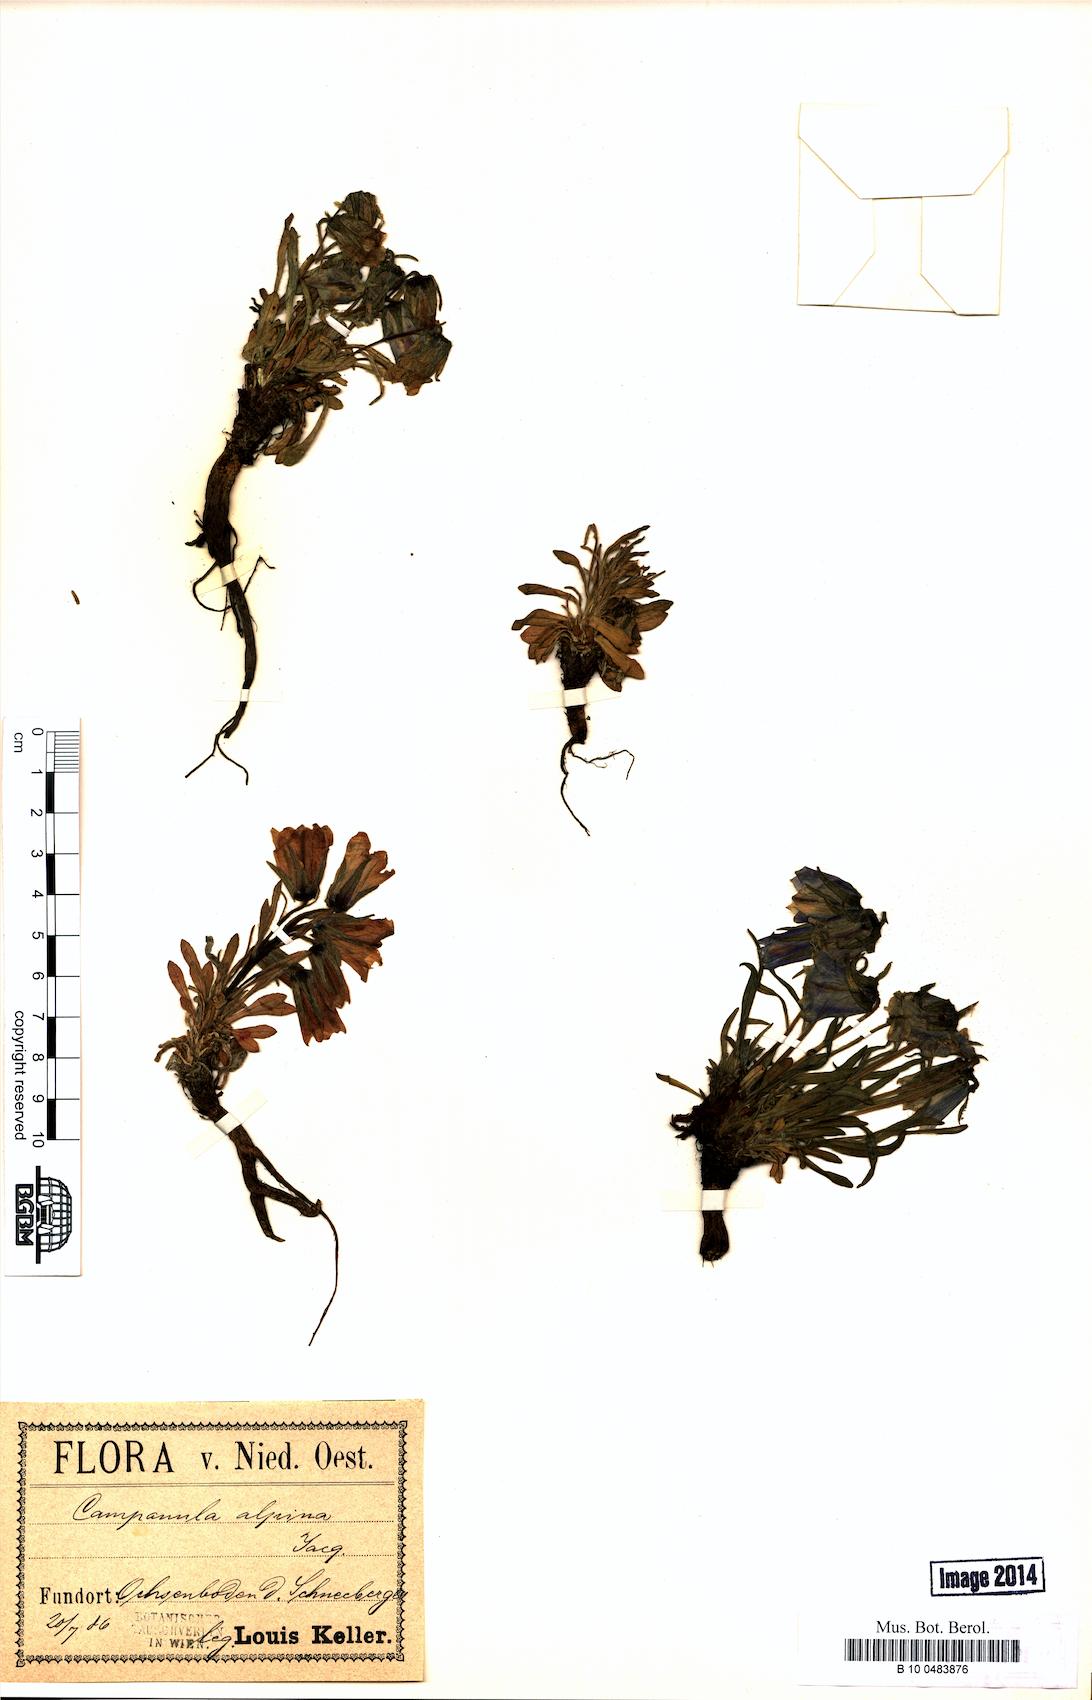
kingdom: Plantae
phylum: Tracheophyta
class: Magnoliopsida
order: Asterales
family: Campanulaceae
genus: Campanula
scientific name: Campanula alpina
